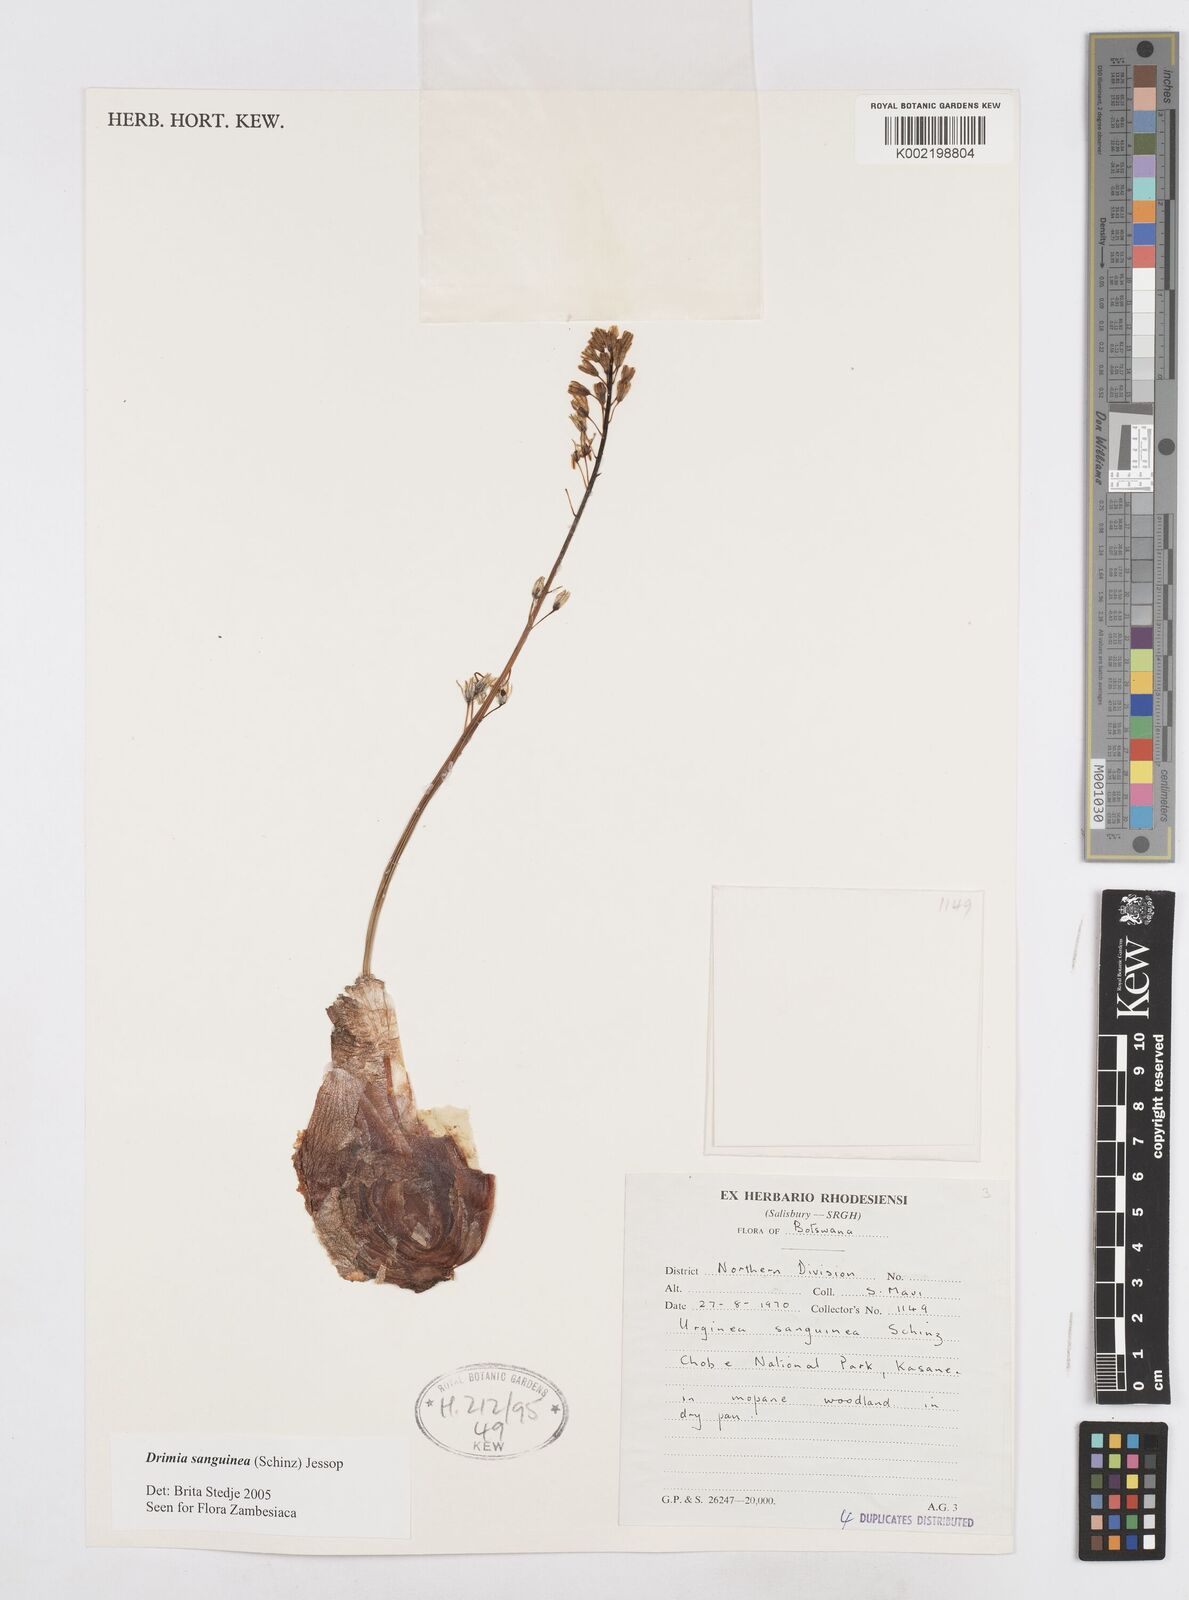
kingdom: Plantae
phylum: Tracheophyta
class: Liliopsida
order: Asparagales
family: Asparagaceae
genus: Drimia
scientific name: Drimia sanguinea
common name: Transvaal slangkop
